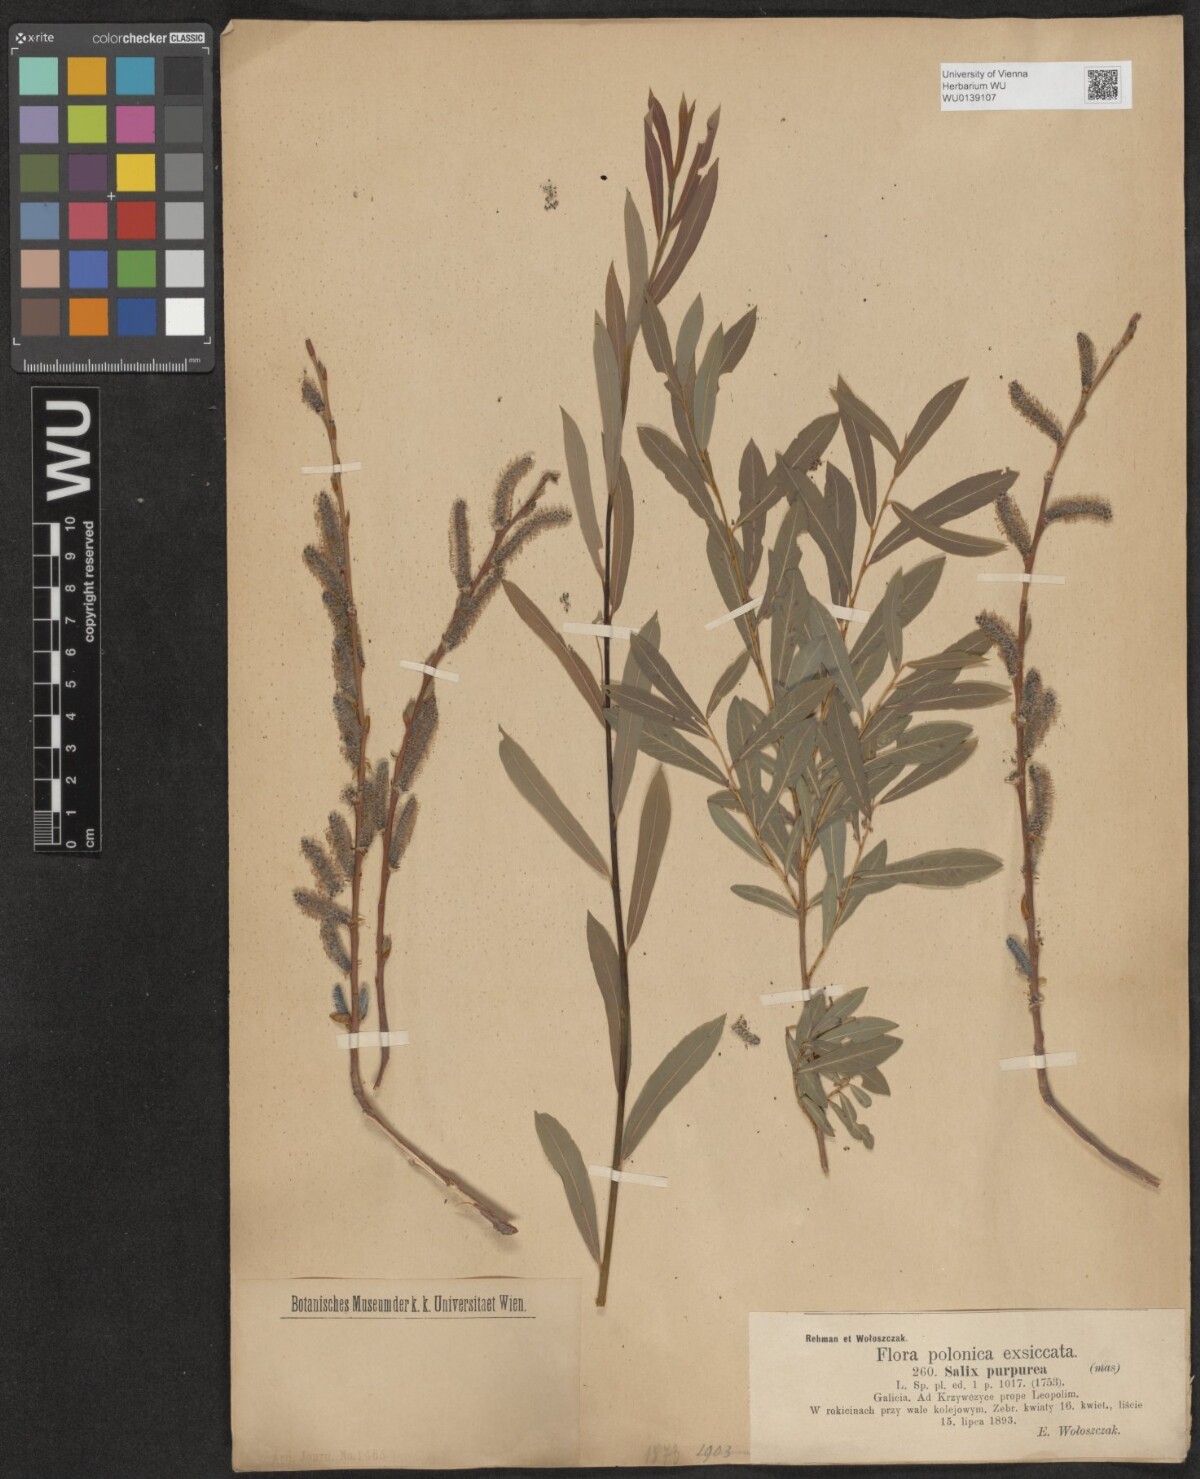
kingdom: Plantae
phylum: Tracheophyta
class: Magnoliopsida
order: Malpighiales
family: Salicaceae
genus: Salix
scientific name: Salix purpurea
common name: Purple willow
